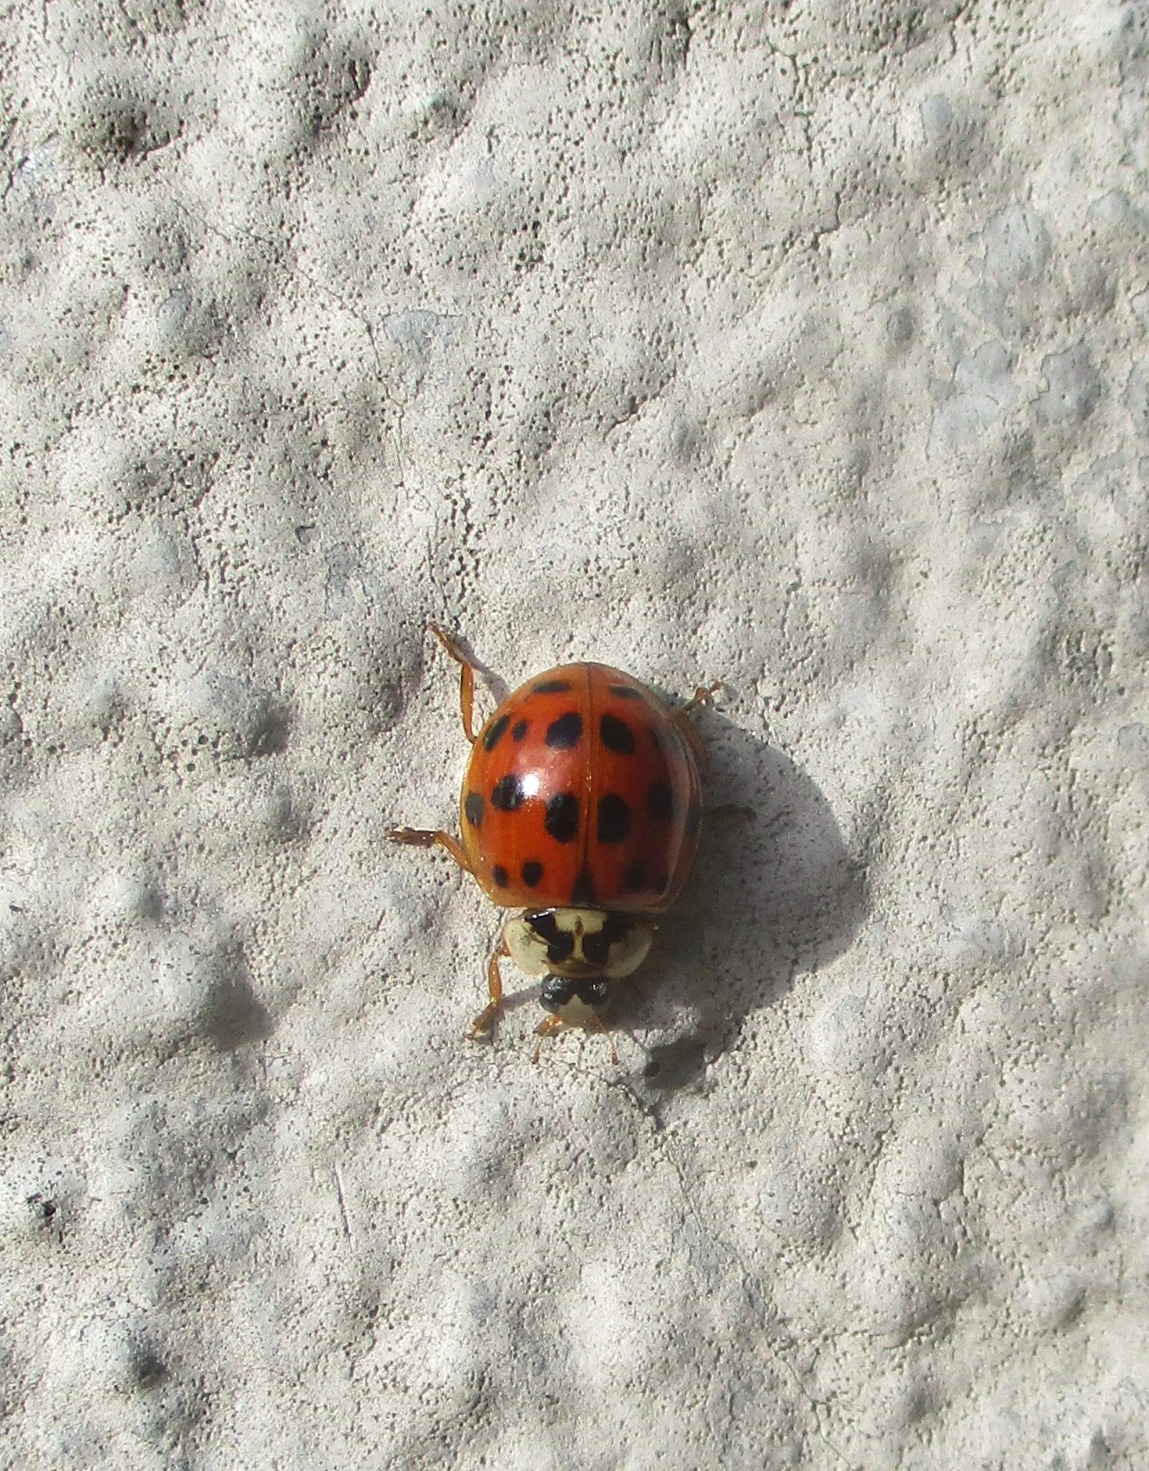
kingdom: Animalia
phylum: Arthropoda
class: Insecta
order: Coleoptera
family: Coccinellidae
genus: Harmonia
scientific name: Harmonia axyridis
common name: Harlekinmariehøne
